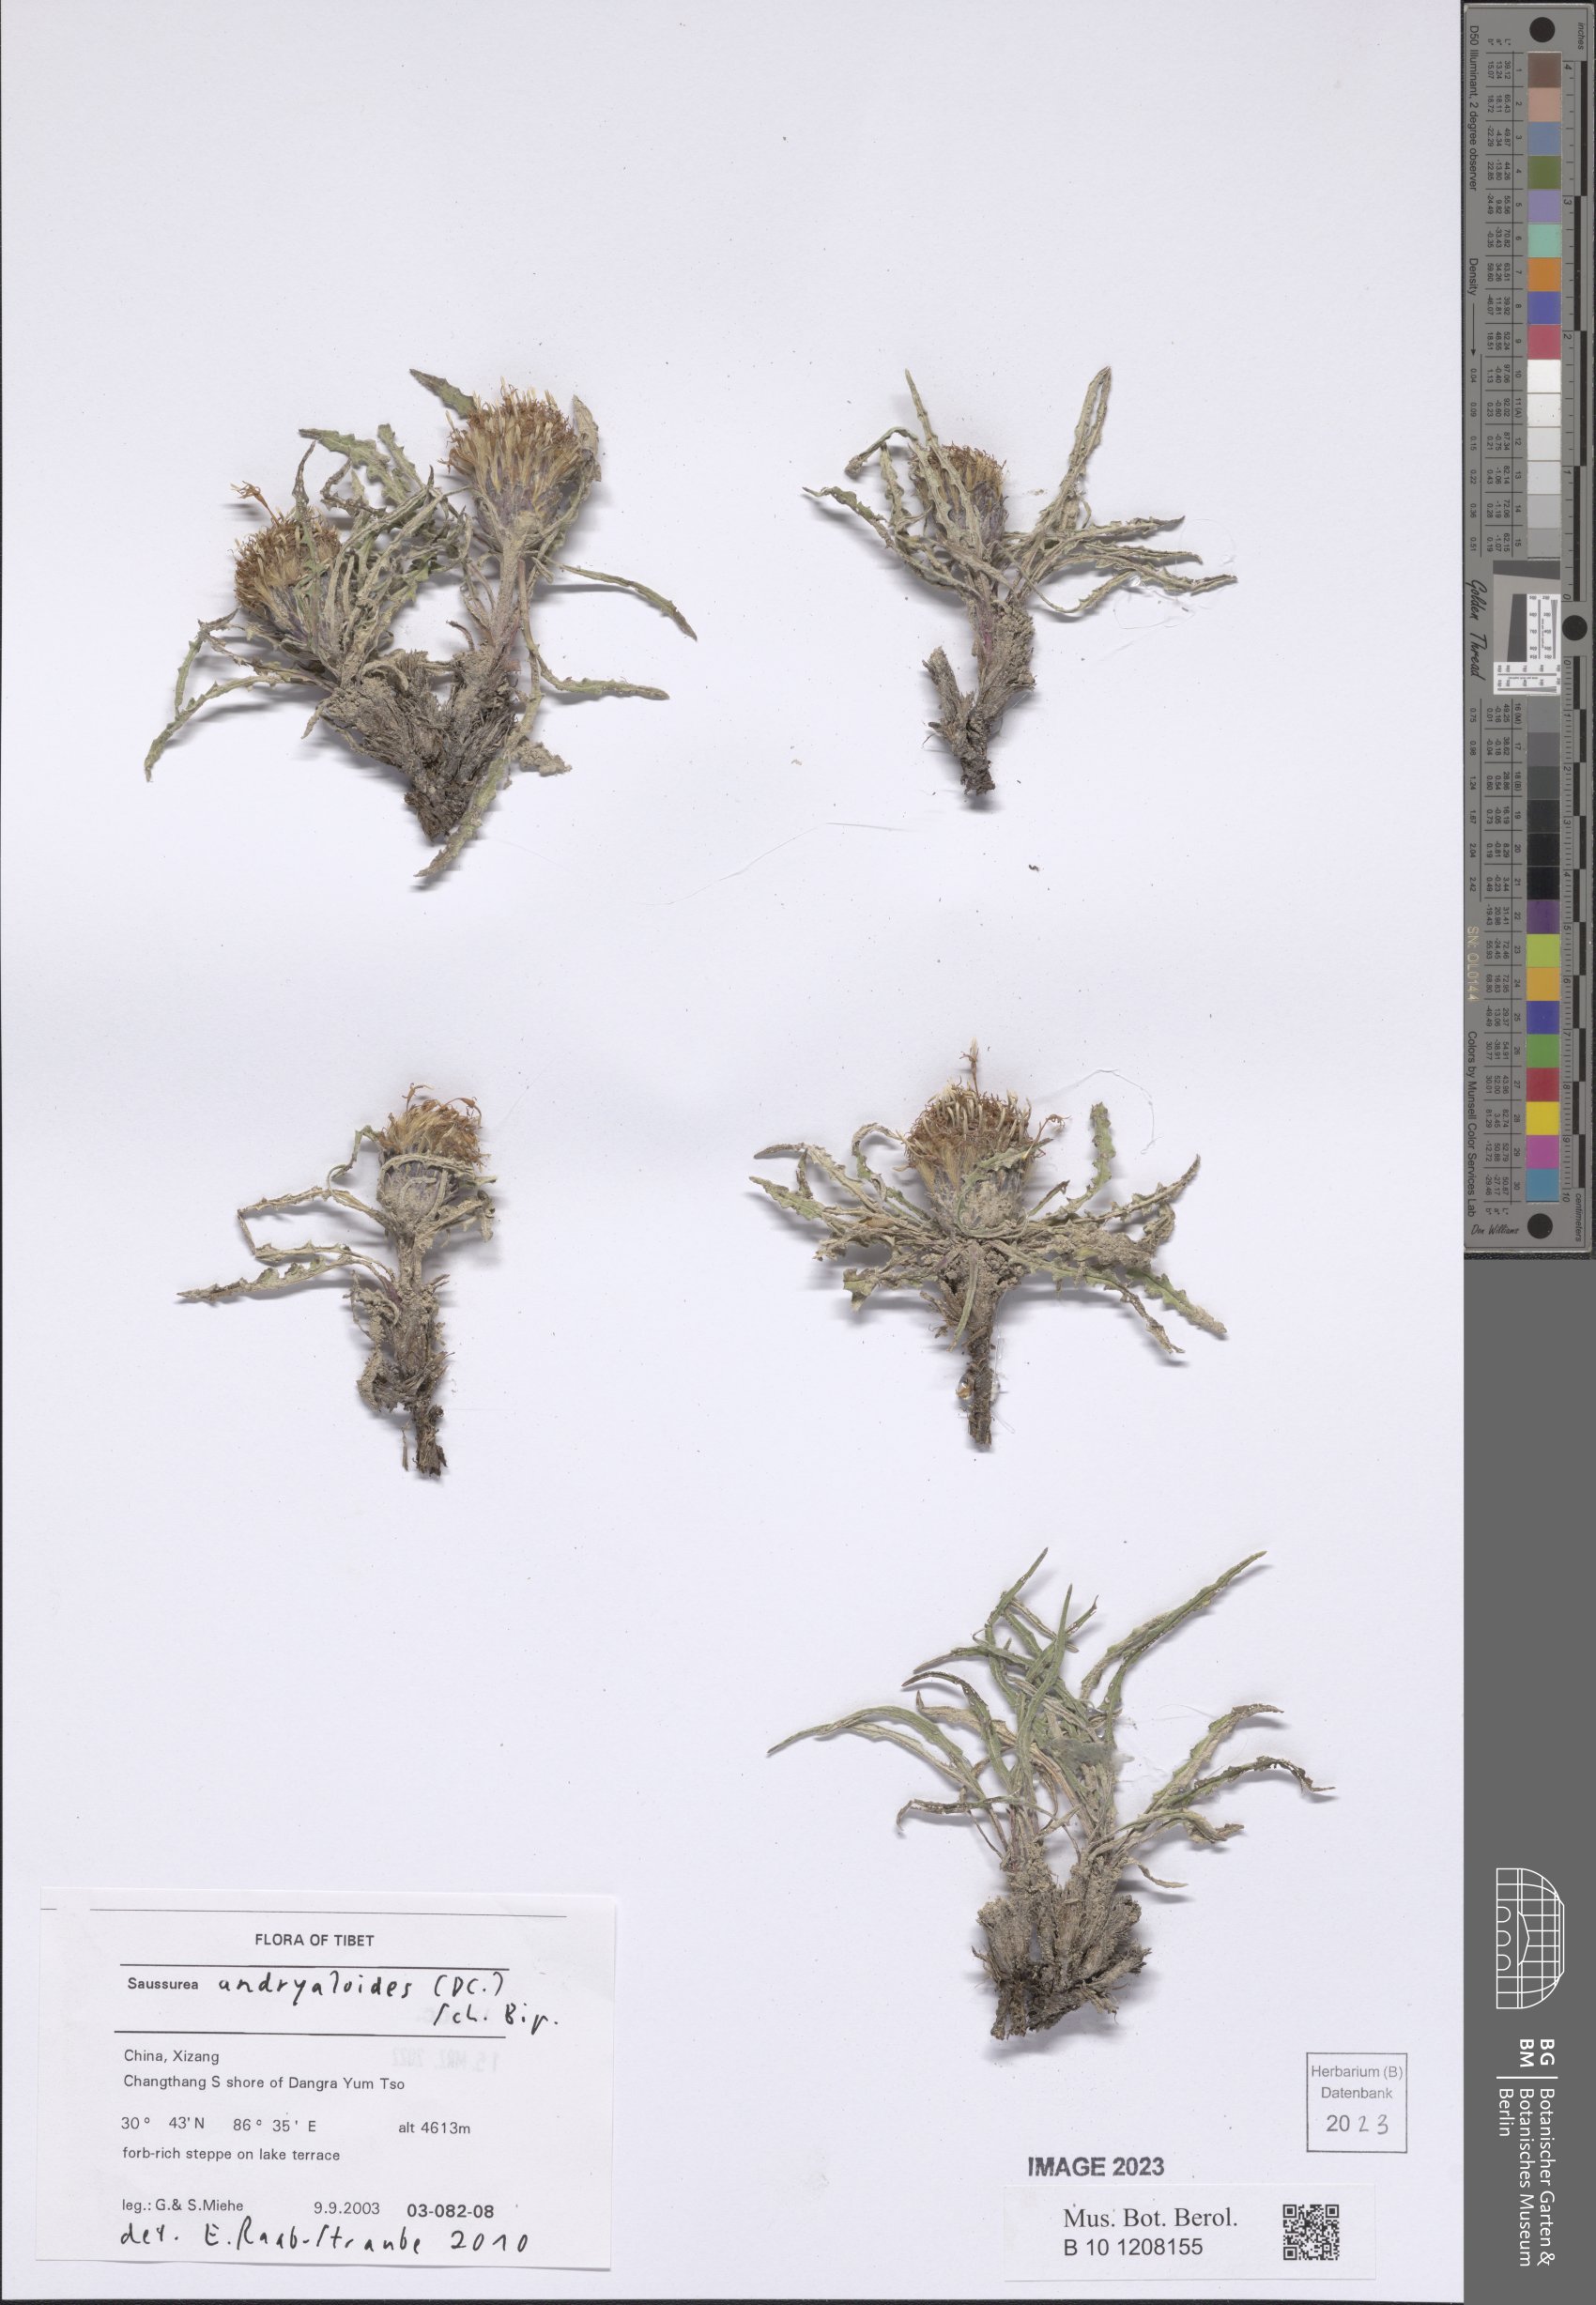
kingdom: Plantae
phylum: Tracheophyta
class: Magnoliopsida
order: Asterales
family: Asteraceae
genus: Saussurea
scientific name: Saussurea andryaloides
